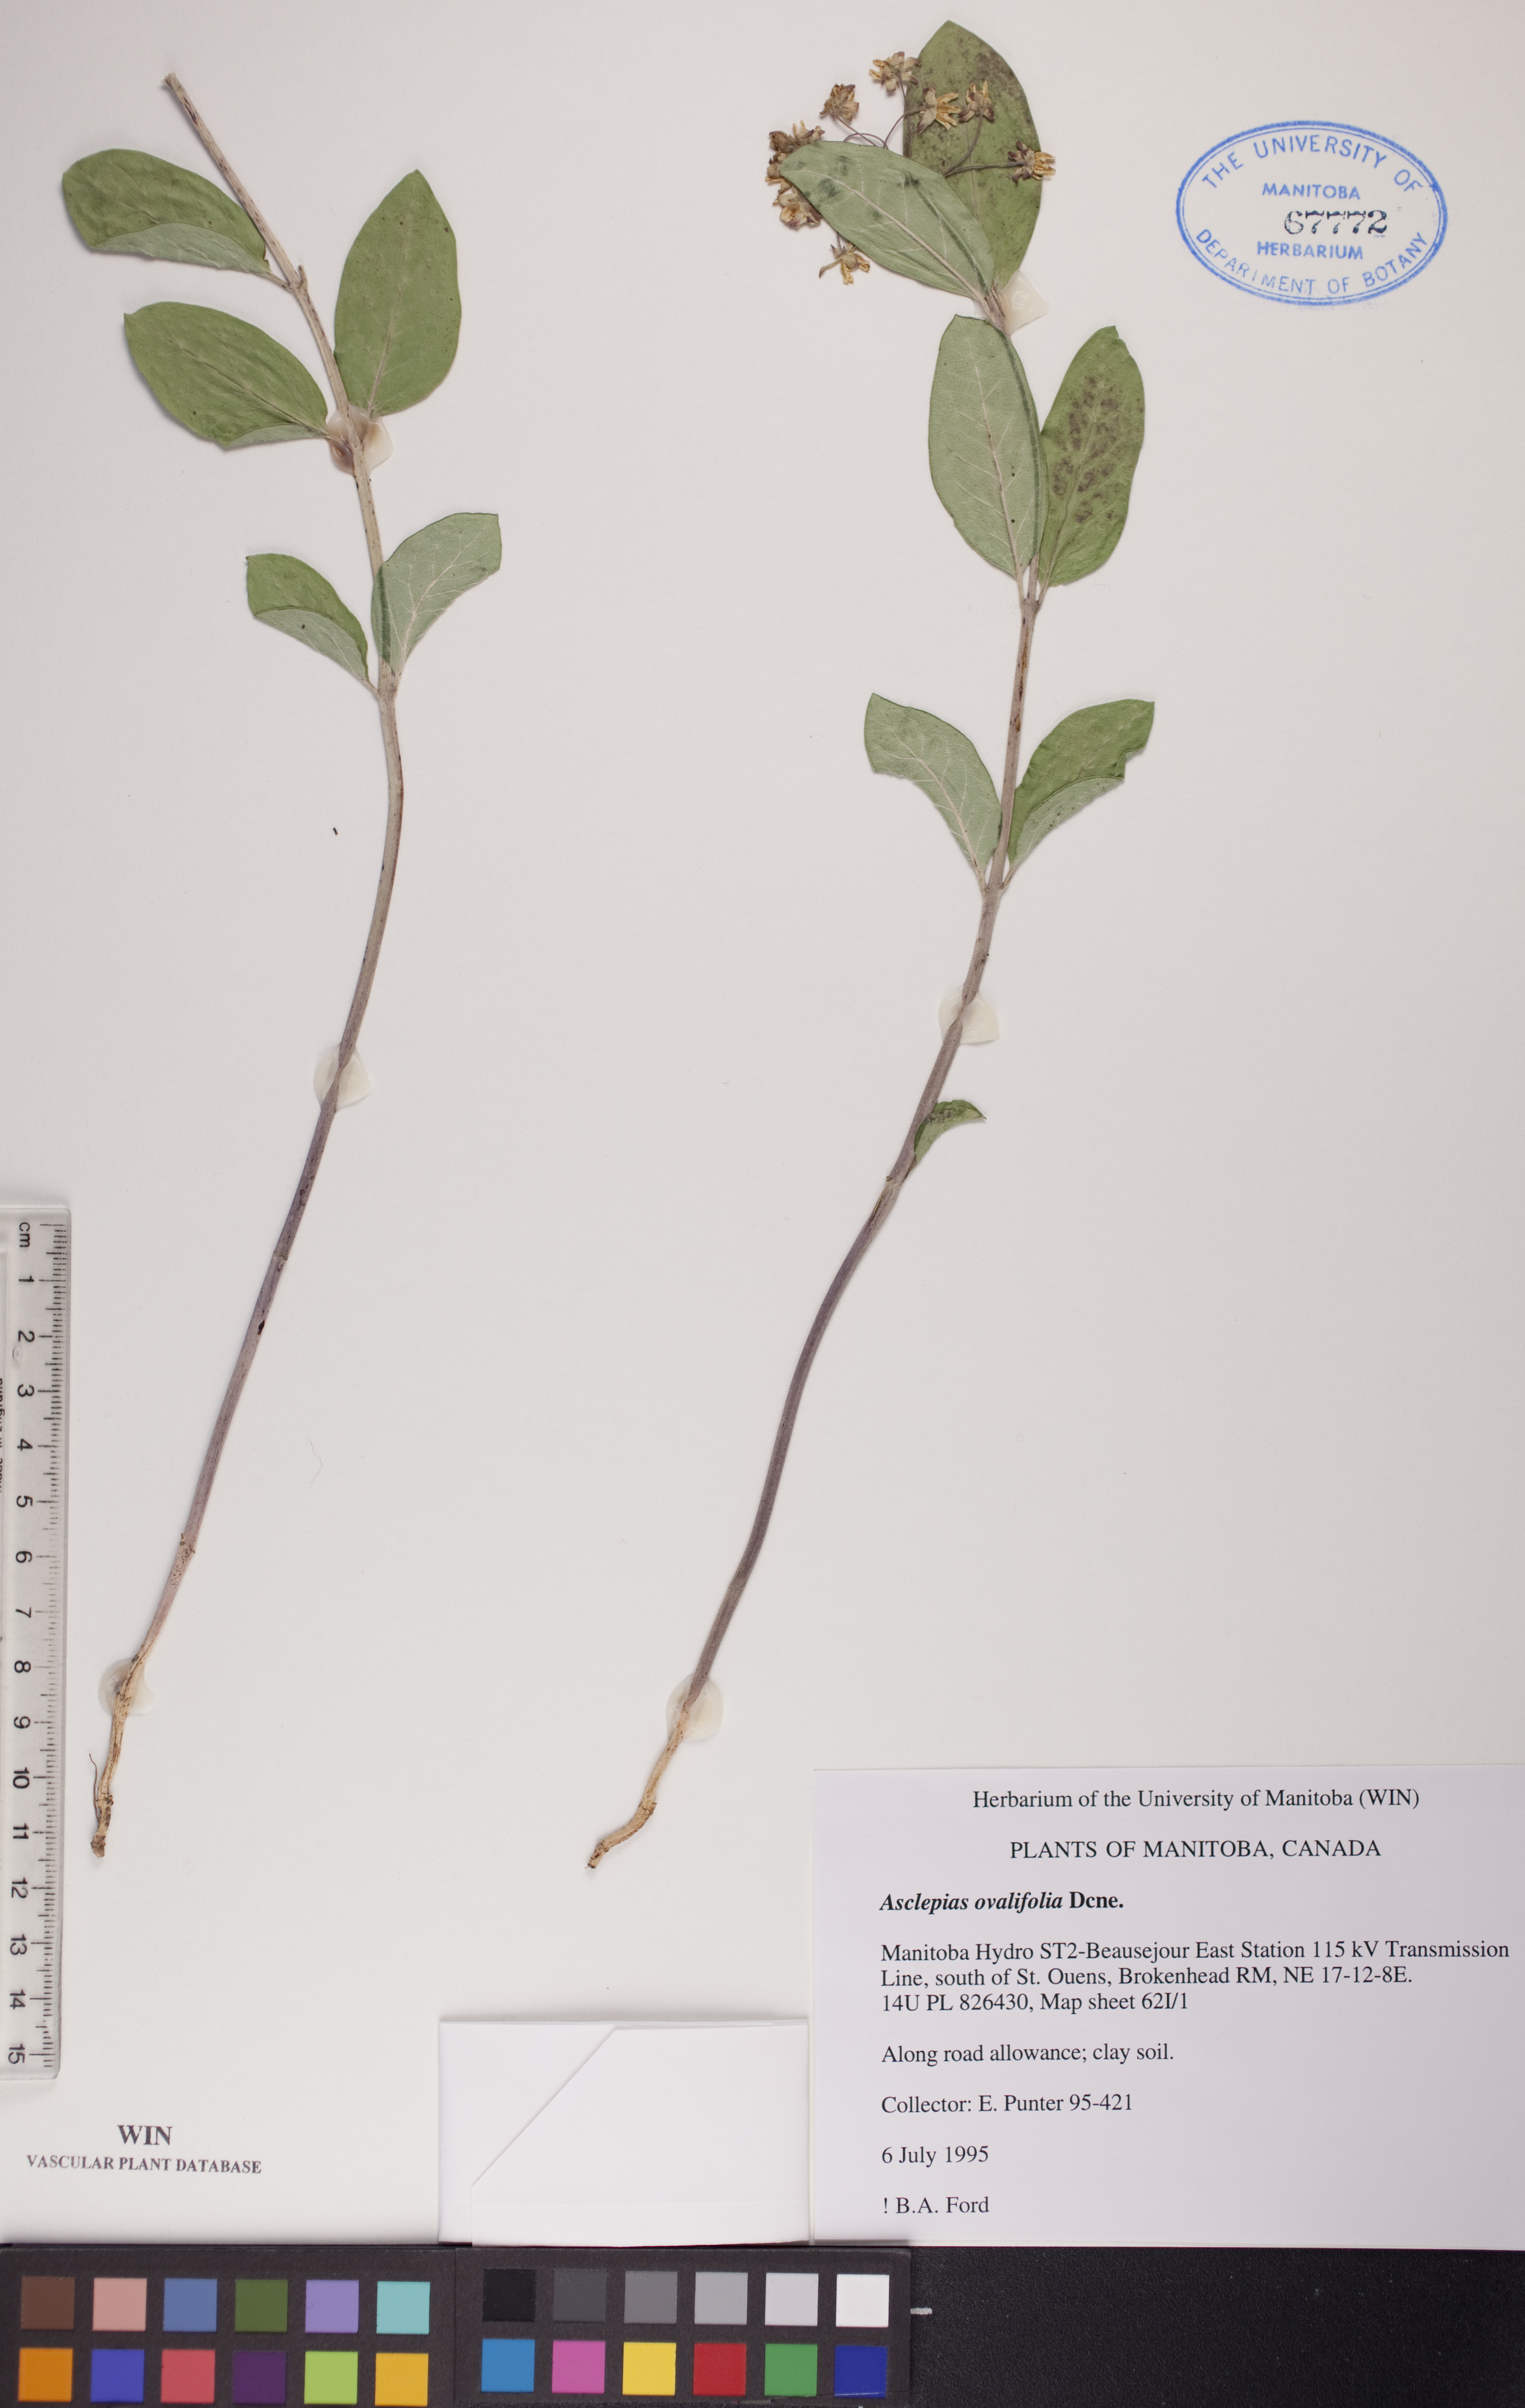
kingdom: Plantae
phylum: Tracheophyta
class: Magnoliopsida
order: Gentianales
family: Apocynaceae
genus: Asclepias
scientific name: Asclepias ovalifolia
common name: Dwarf milkweed
